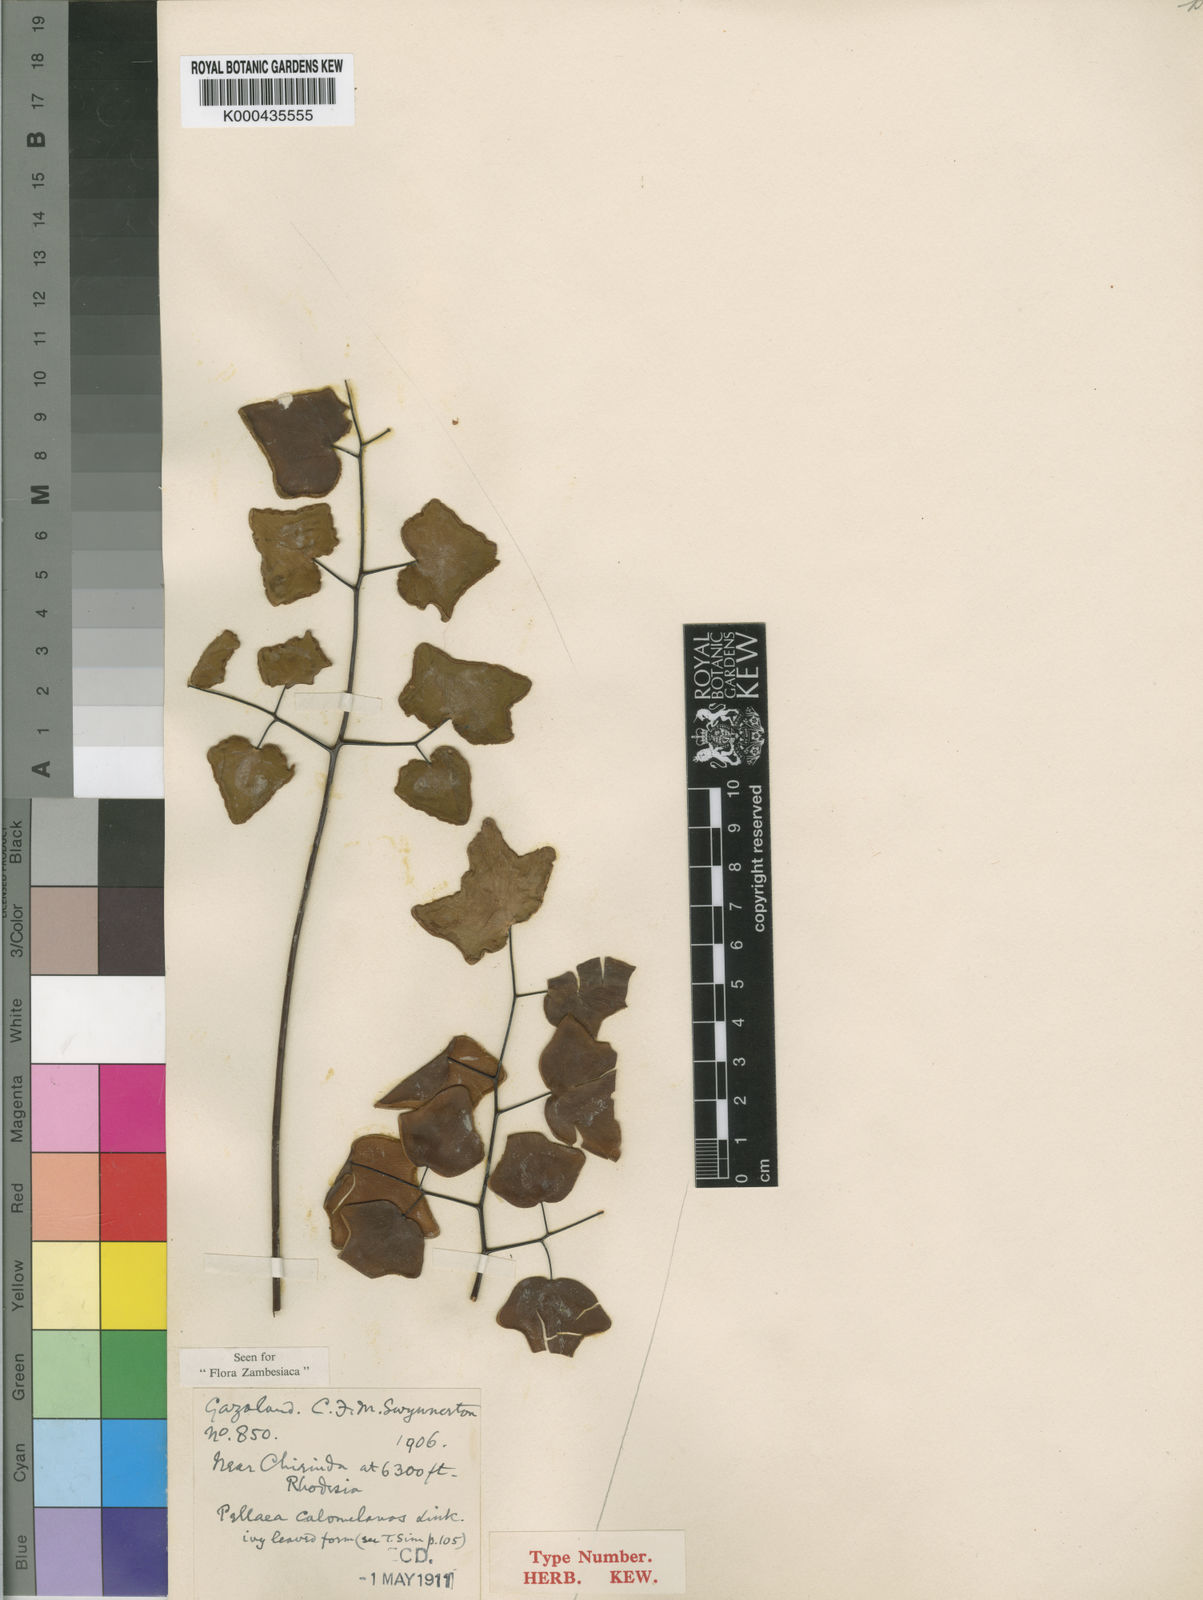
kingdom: Plantae
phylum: Tracheophyta
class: Polypodiopsida
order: Polypodiales
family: Pteridaceae
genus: Pellaea
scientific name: Pellaea
